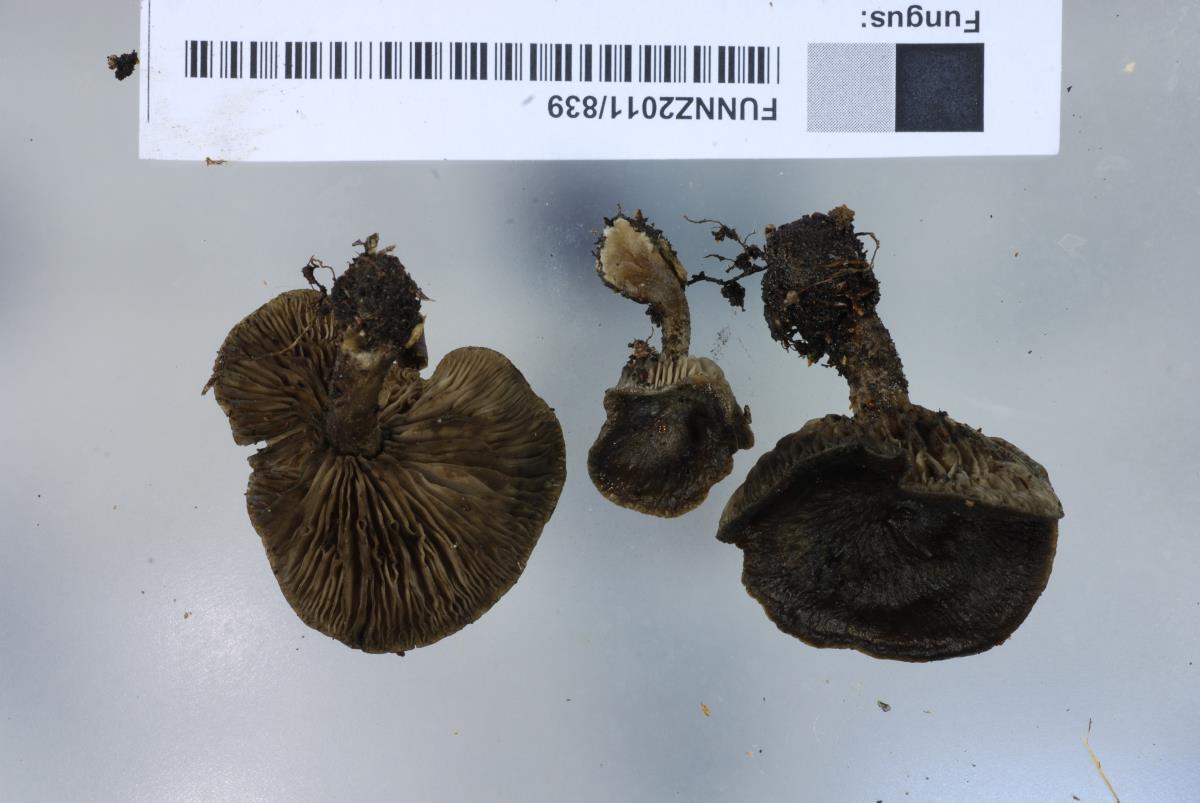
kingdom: Fungi
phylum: Basidiomycota
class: Agaricomycetes
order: Agaricales
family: Lyophyllaceae
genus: Lyophyllum
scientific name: Lyophyllum
